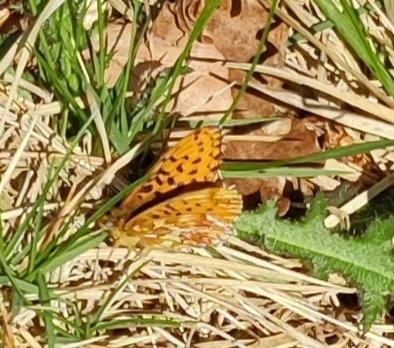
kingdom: Animalia
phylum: Arthropoda
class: Insecta
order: Lepidoptera
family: Nymphalidae
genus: Clossiana
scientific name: Clossiana euphrosyne
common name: Rødlig perlemorsommerfugl
